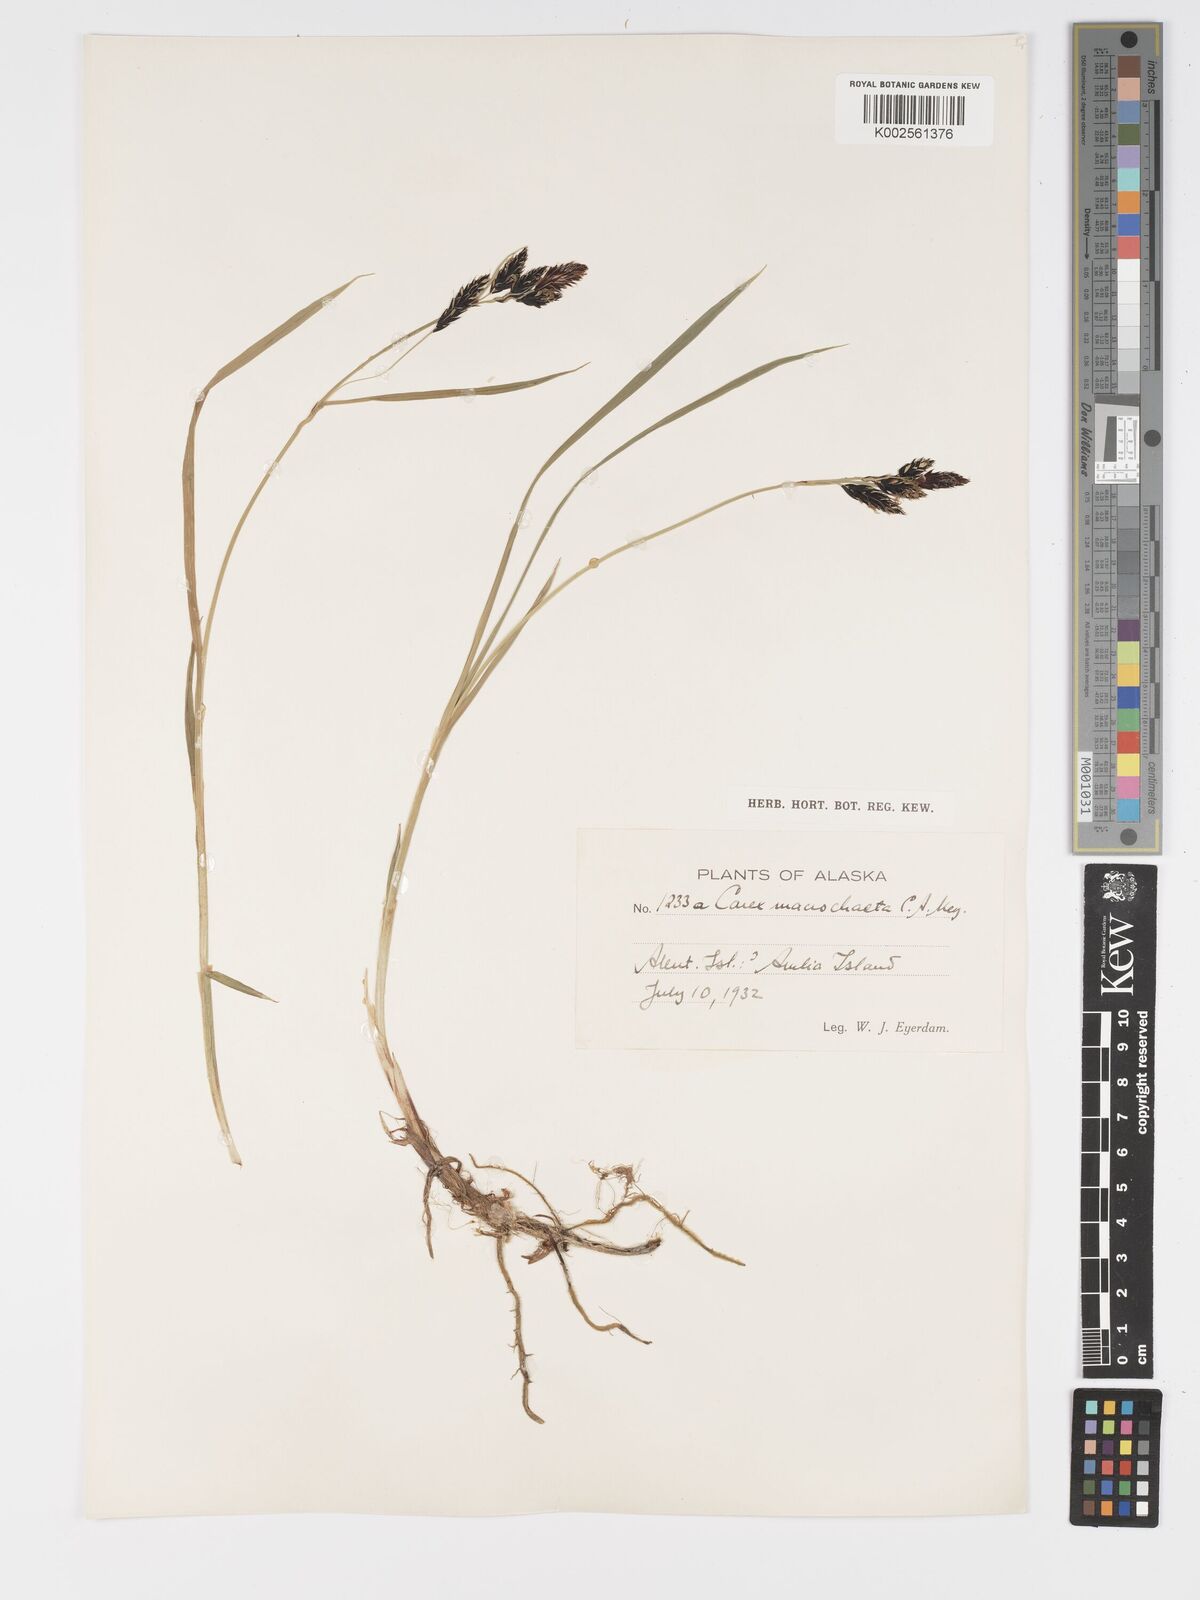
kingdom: Plantae
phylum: Tracheophyta
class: Liliopsida
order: Poales
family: Cyperaceae
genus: Carex
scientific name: Carex macrochaeta
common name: Alaska large awn sedge
